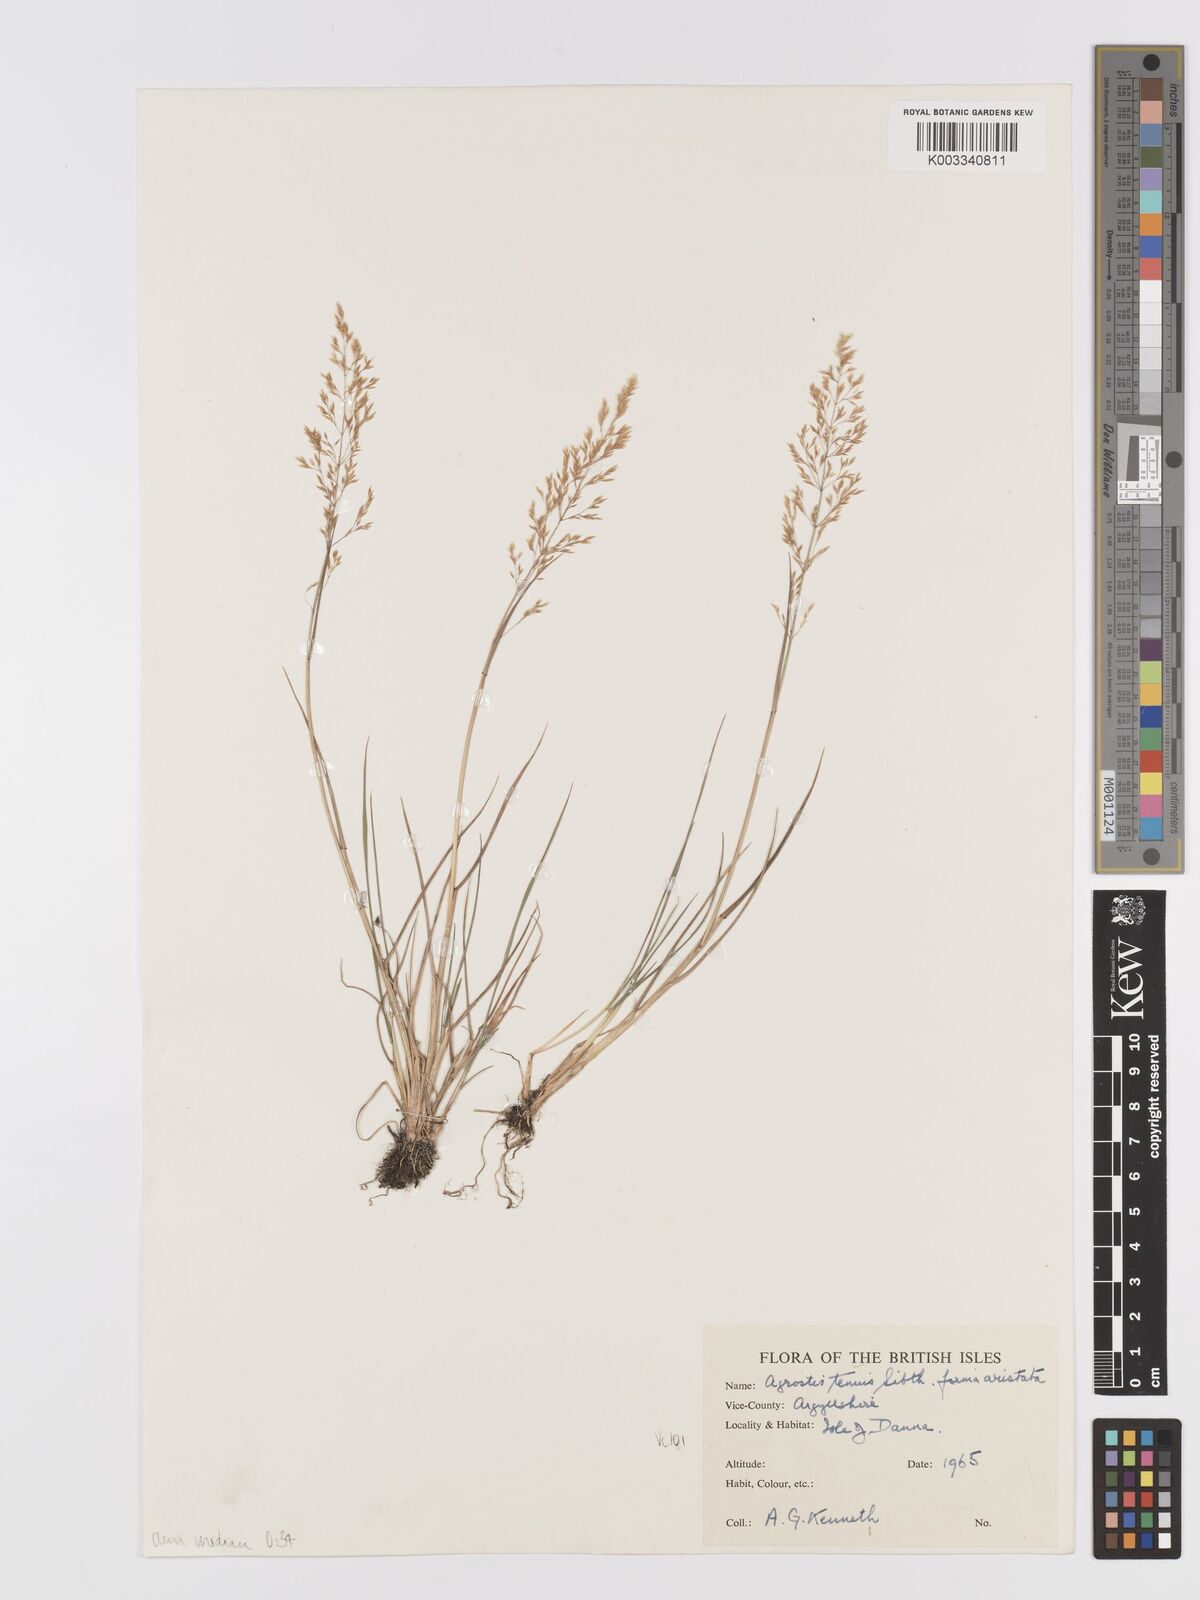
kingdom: Plantae
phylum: Tracheophyta
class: Liliopsida
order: Poales
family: Poaceae
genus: Agrostis
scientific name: Agrostis capillaris
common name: Colonial bentgrass
